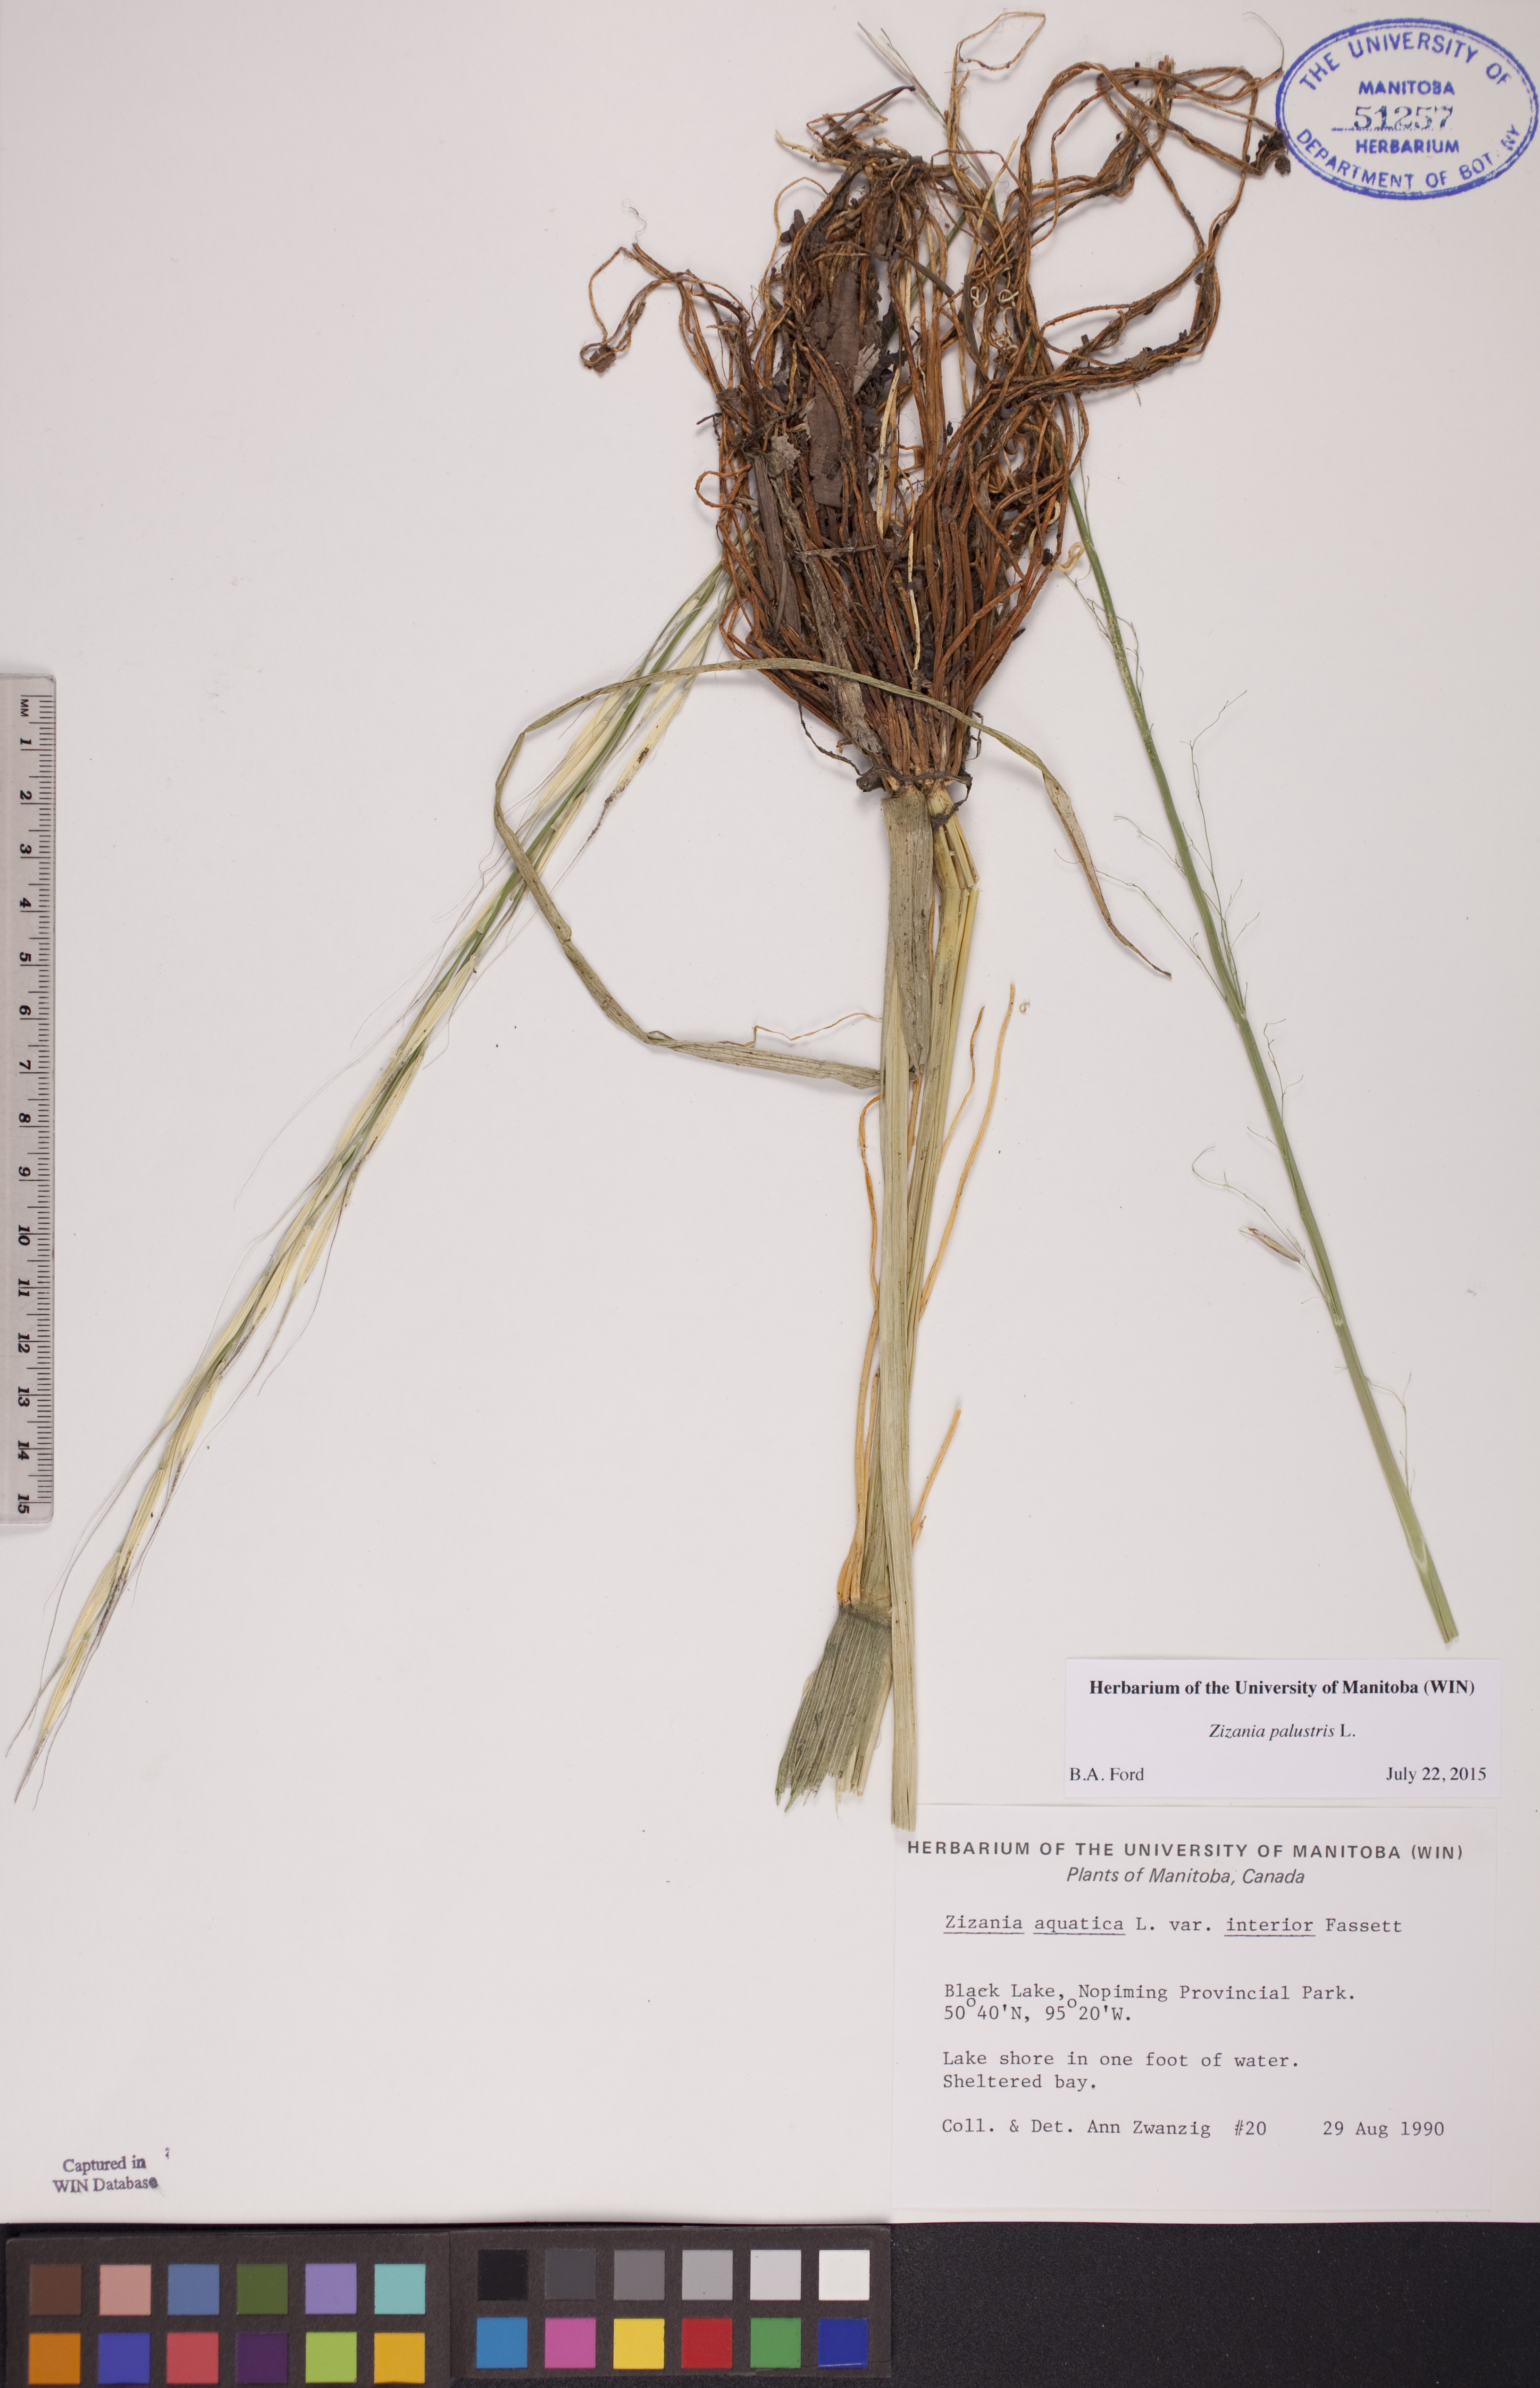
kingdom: Plantae
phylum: Tracheophyta
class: Liliopsida
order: Poales
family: Poaceae
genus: Zizania
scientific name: Zizania palustris
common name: Northern wild rice
